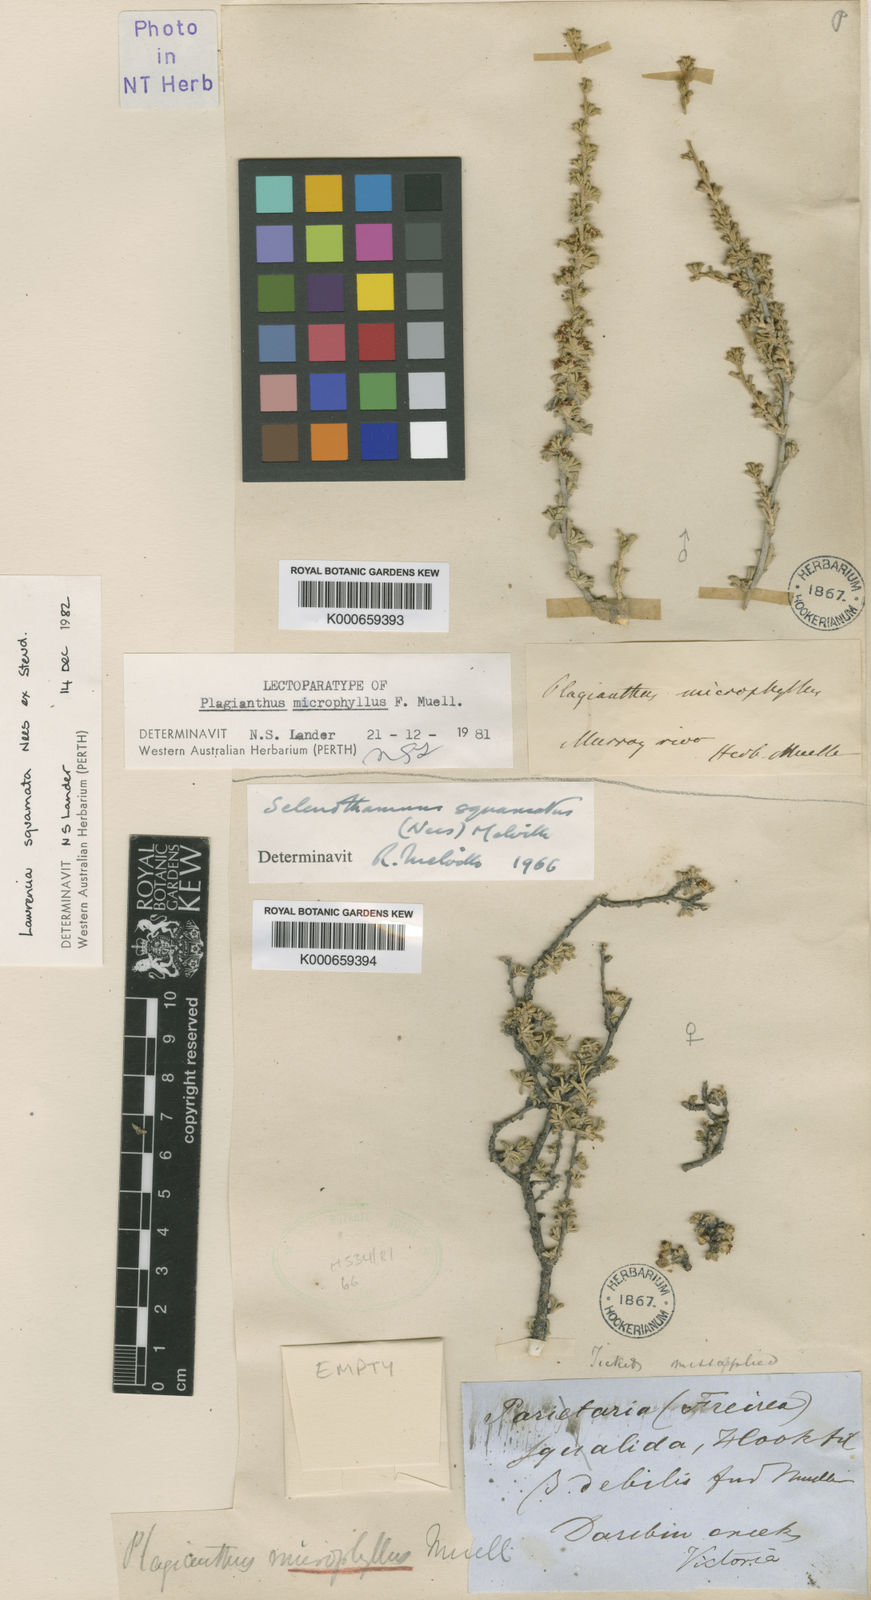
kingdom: Plantae
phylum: Tracheophyta
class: Magnoliopsida
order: Malvales
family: Malvaceae
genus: Lawrencia
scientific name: Lawrencia squamata
